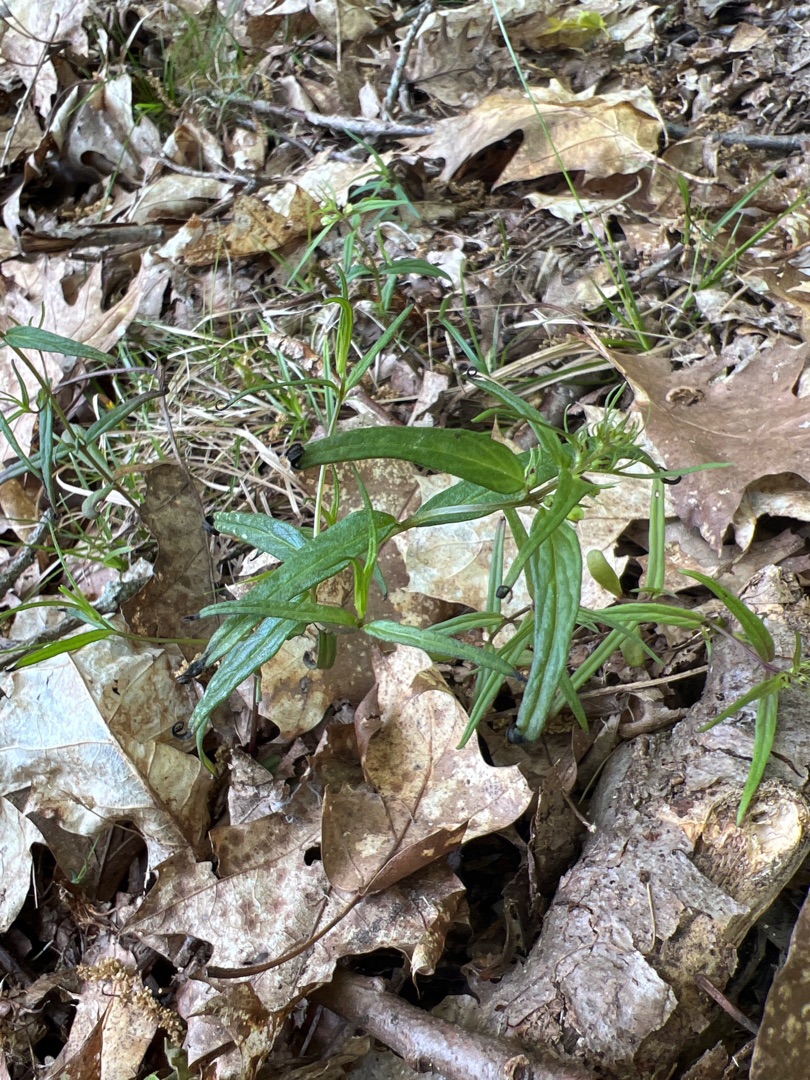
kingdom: Plantae
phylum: Tracheophyta
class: Magnoliopsida
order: Lamiales
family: Orobanchaceae
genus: Melampyrum
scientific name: Melampyrum pratense
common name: Almindelig kohvede
